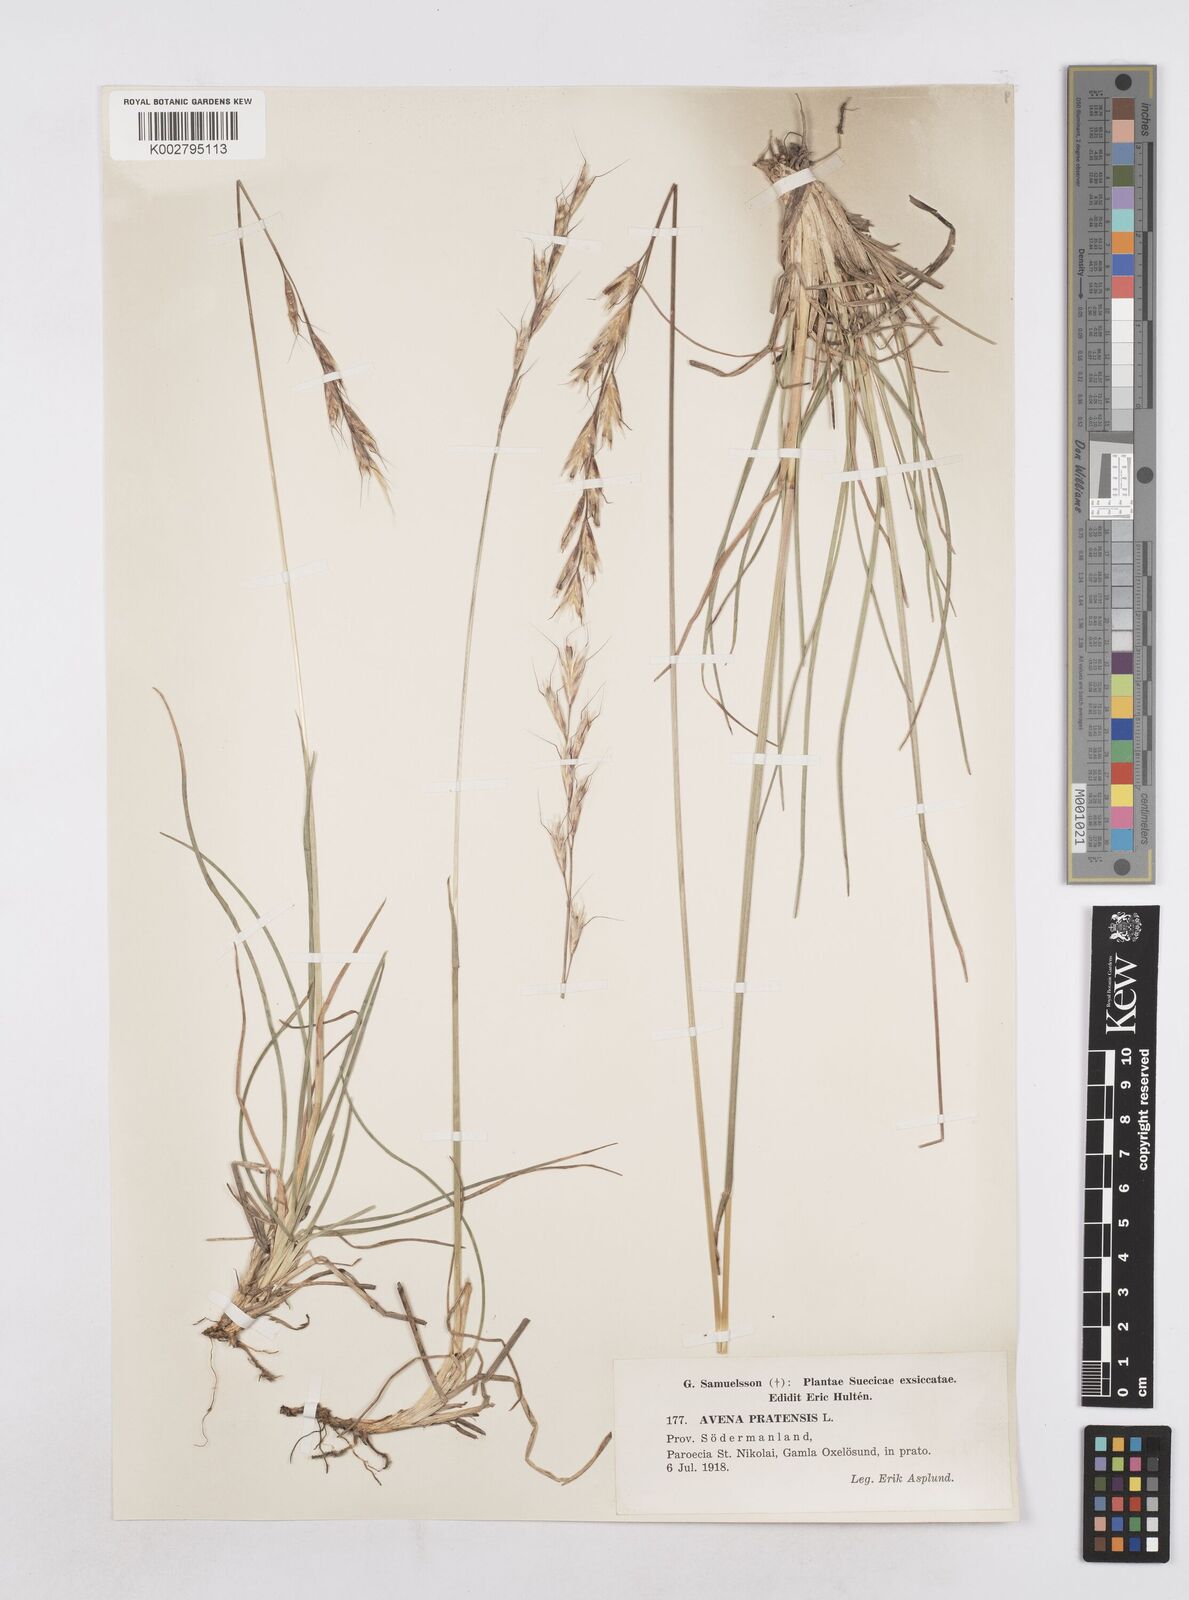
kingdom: Plantae
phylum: Tracheophyta
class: Liliopsida
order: Poales
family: Poaceae
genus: Helictochloa
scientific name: Helictochloa pratensis
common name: Meadow oat grass
